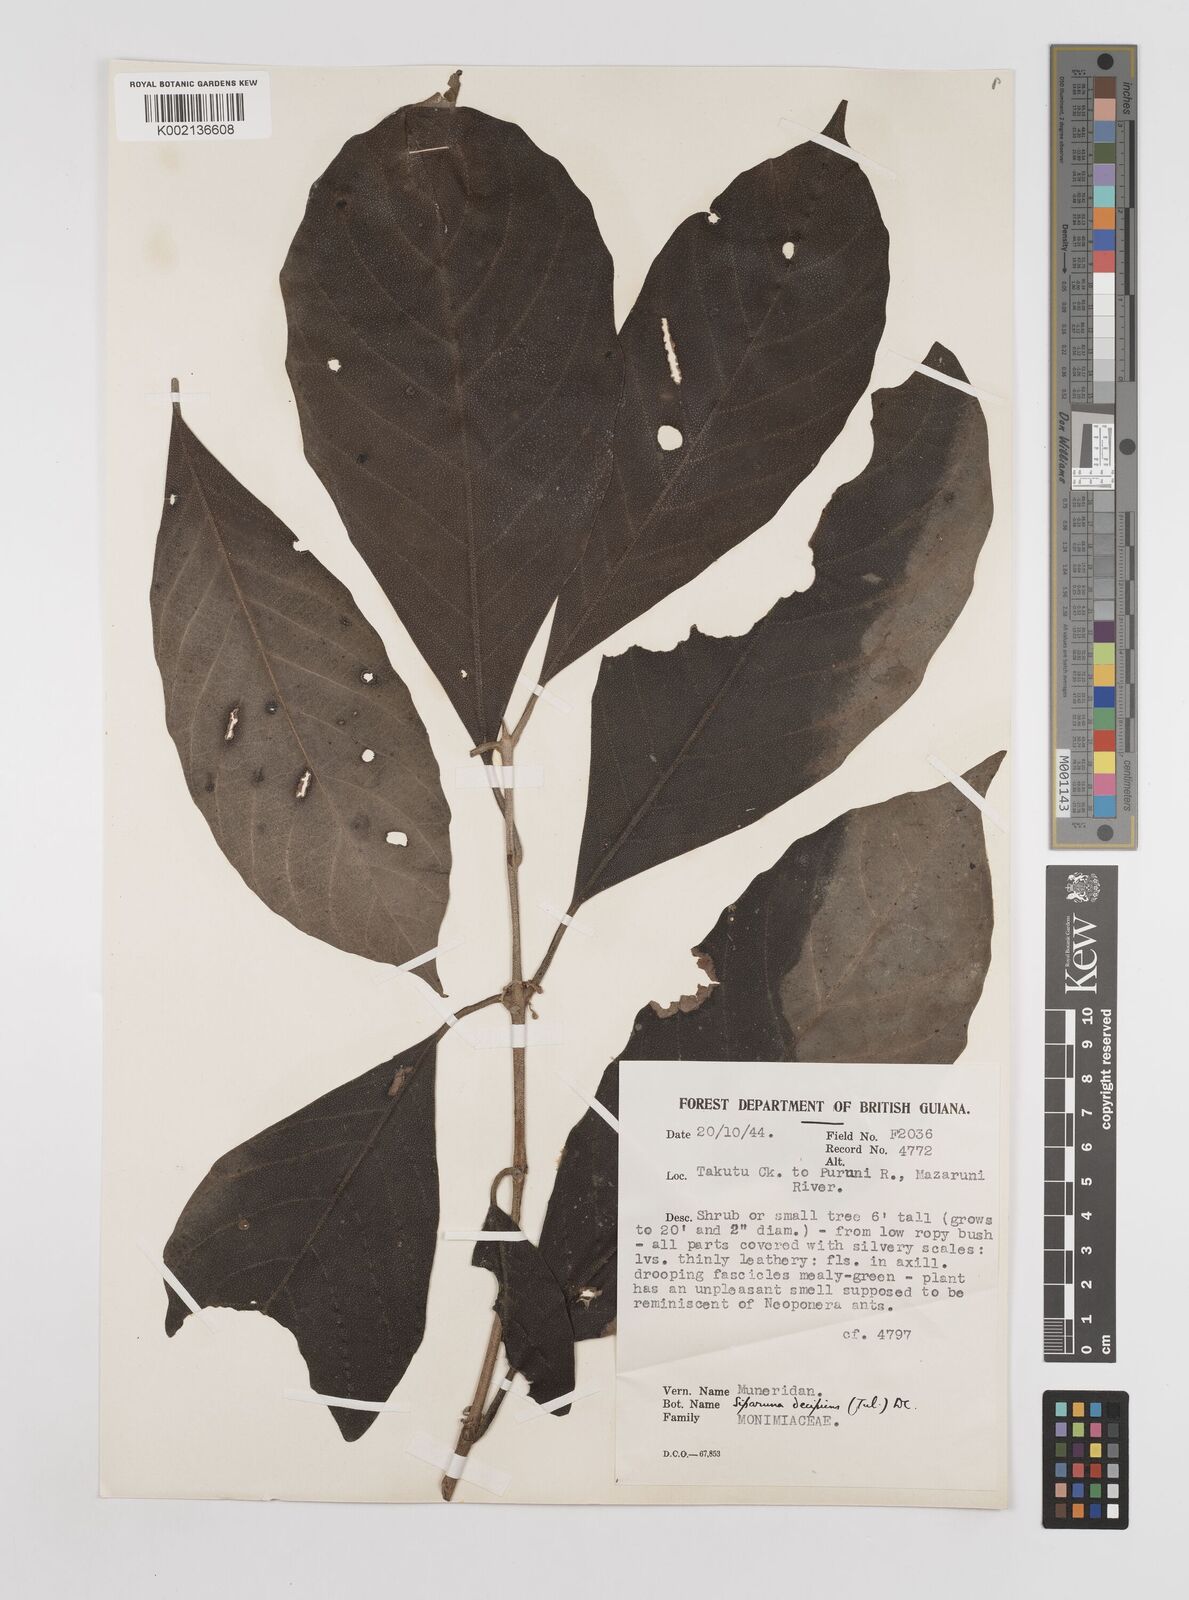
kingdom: Plantae
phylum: Tracheophyta
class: Magnoliopsida
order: Laurales
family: Siparunaceae
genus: Siparuna
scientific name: Siparuna decipiens
